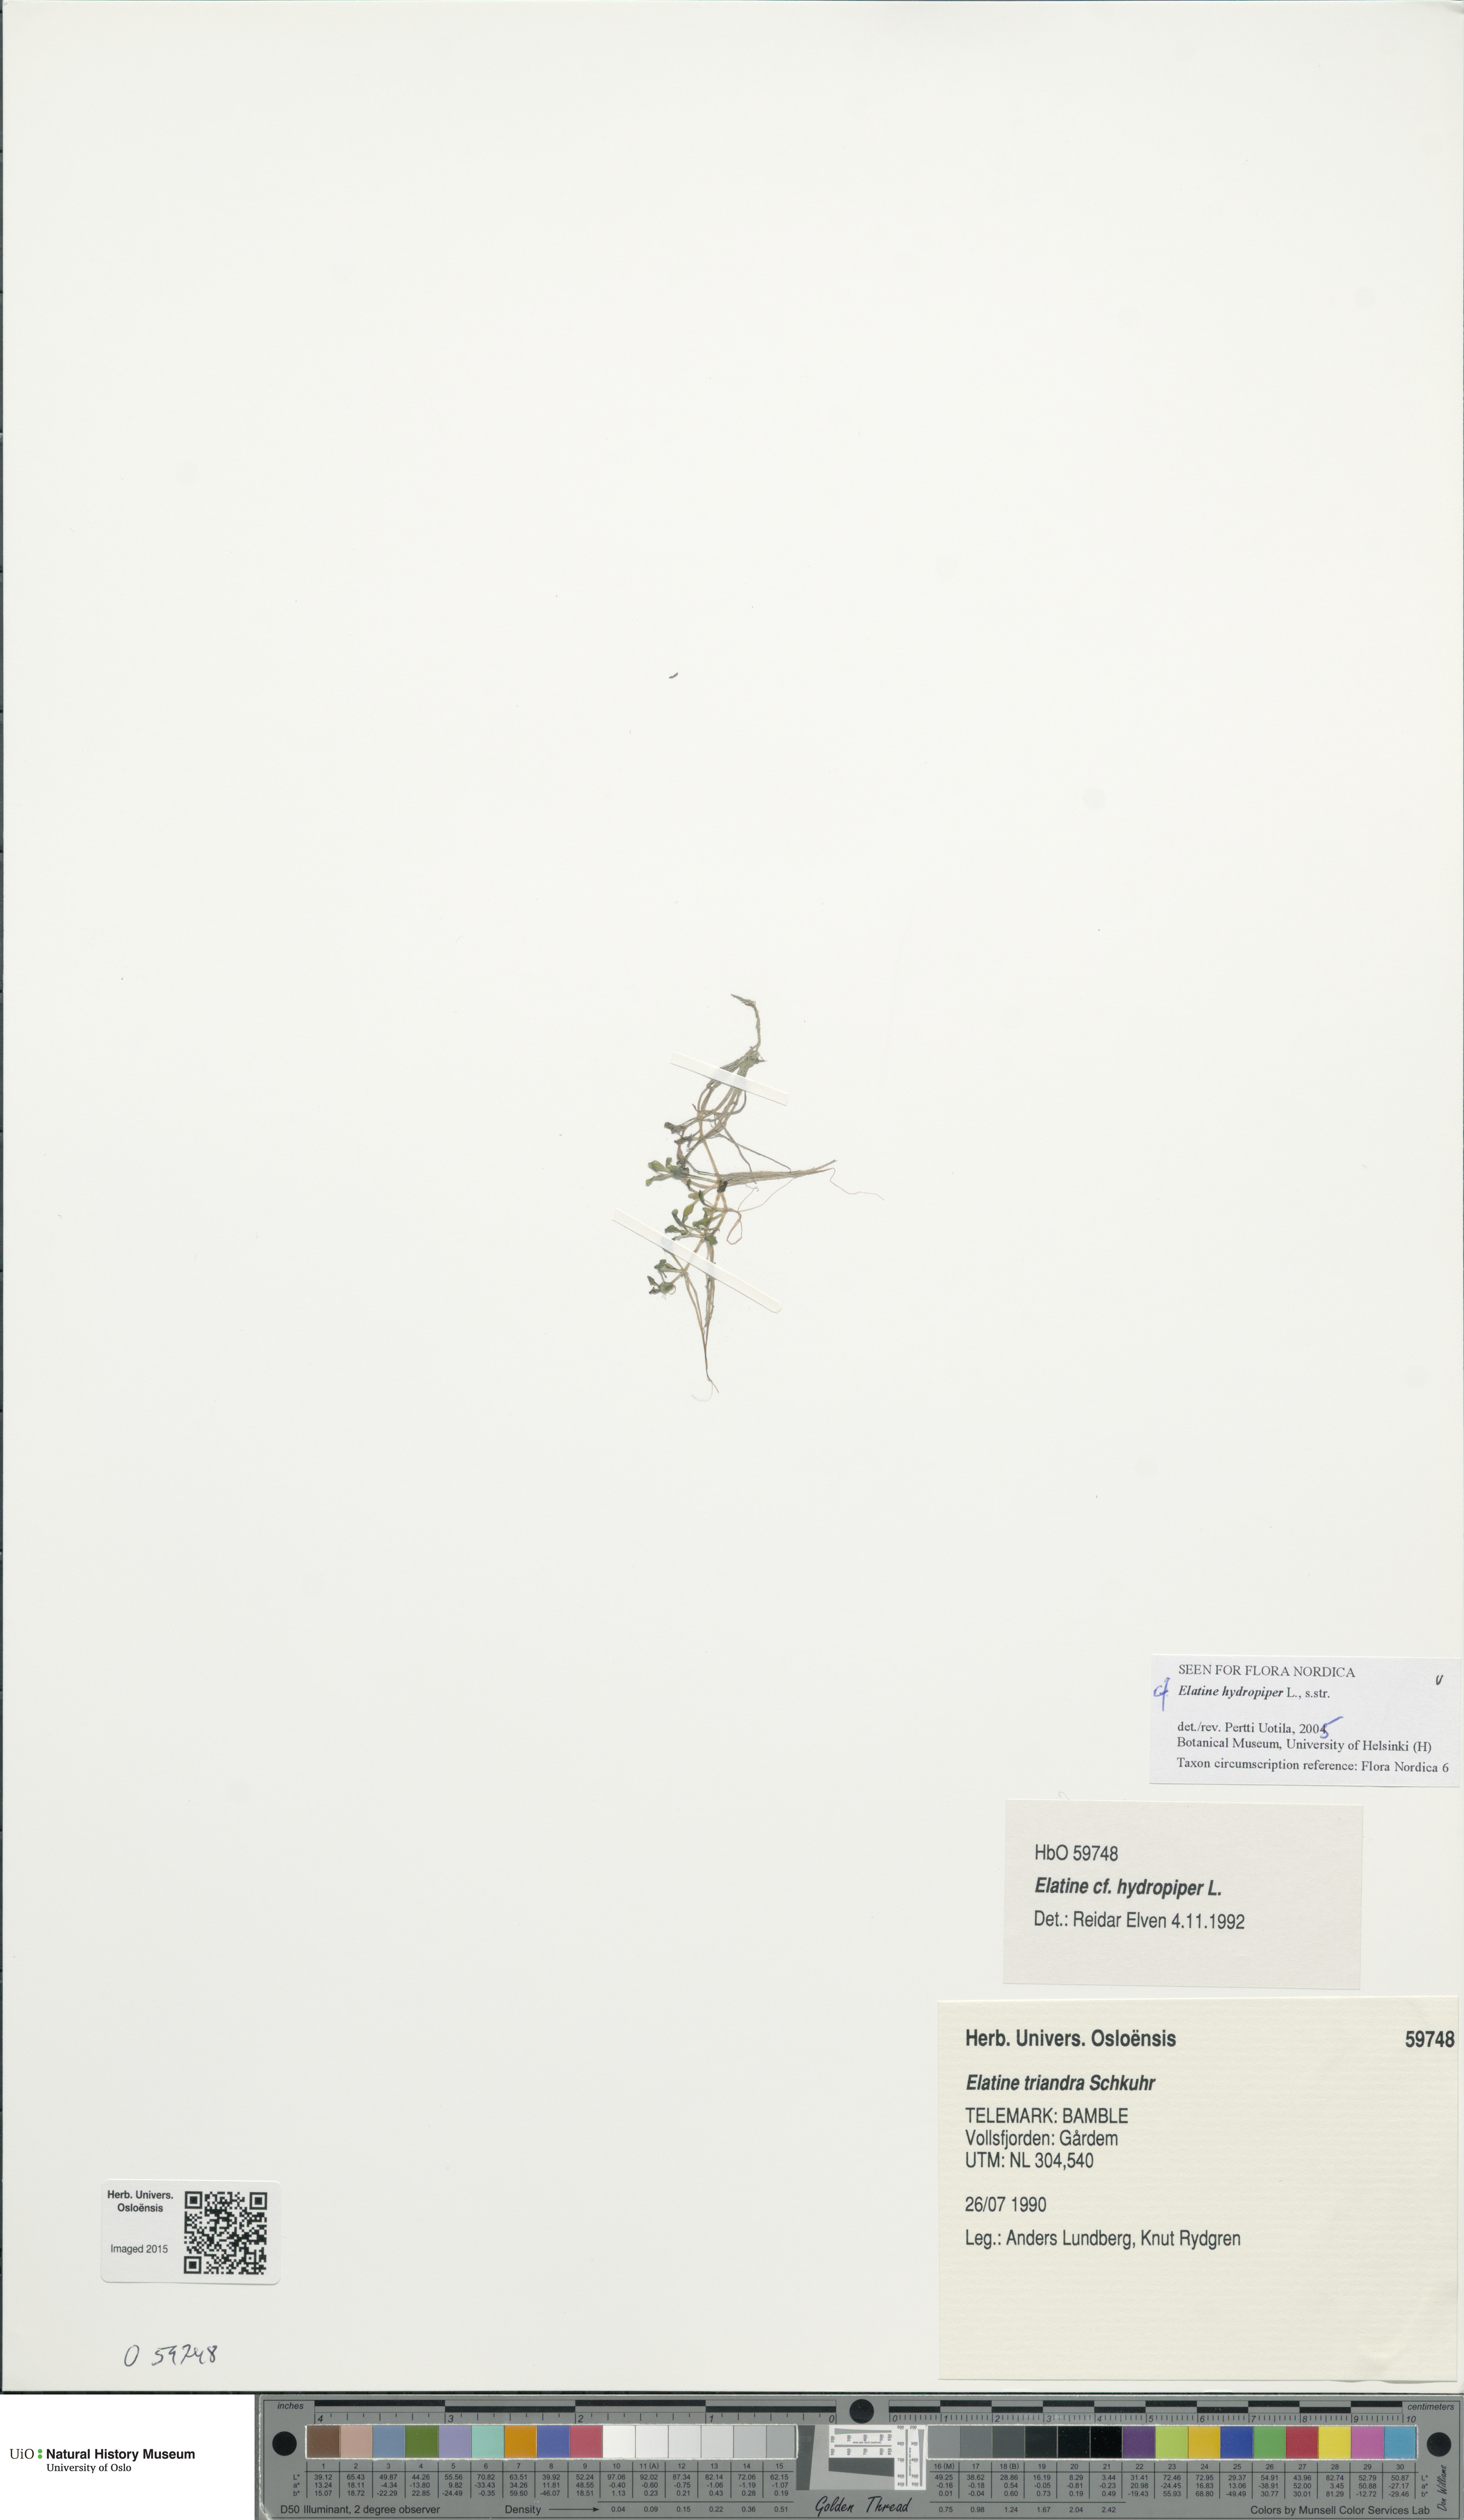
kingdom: Plantae
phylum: Tracheophyta
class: Magnoliopsida
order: Malpighiales
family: Elatinaceae
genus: Elatine
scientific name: Elatine hydropiper
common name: Eight-stamened waterwort
